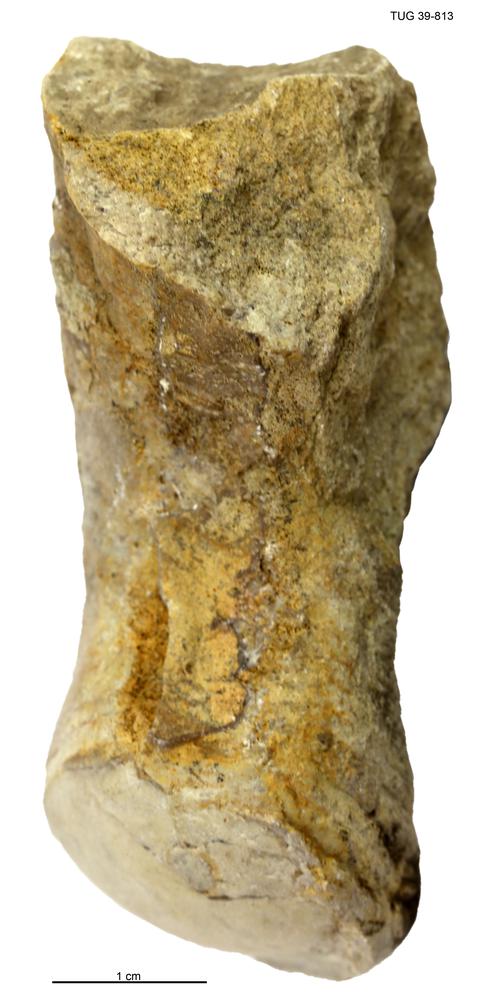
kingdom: Animalia
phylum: Mollusca
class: Cephalopoda
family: Tarphyceratidae
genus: Sweetoceras
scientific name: Sweetoceras
